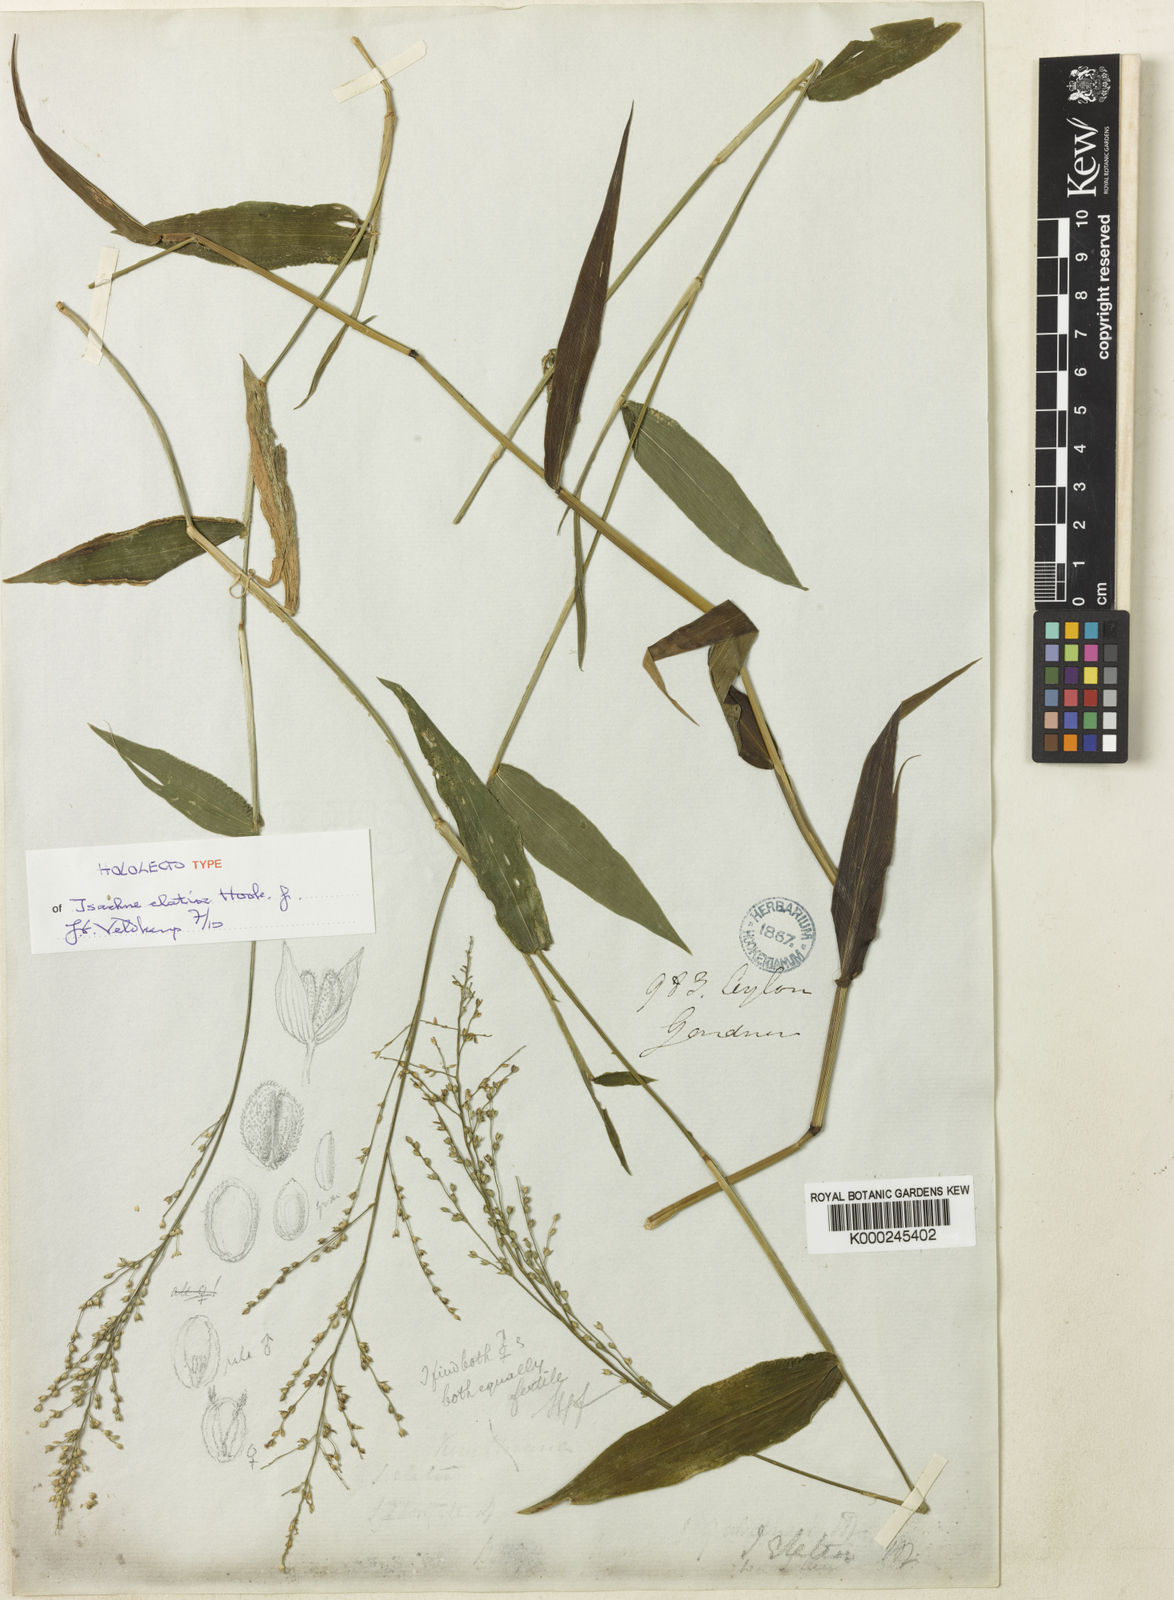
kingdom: Plantae
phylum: Tracheophyta
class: Liliopsida
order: Poales
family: Poaceae
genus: Isachne
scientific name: Isachne kunthiana
